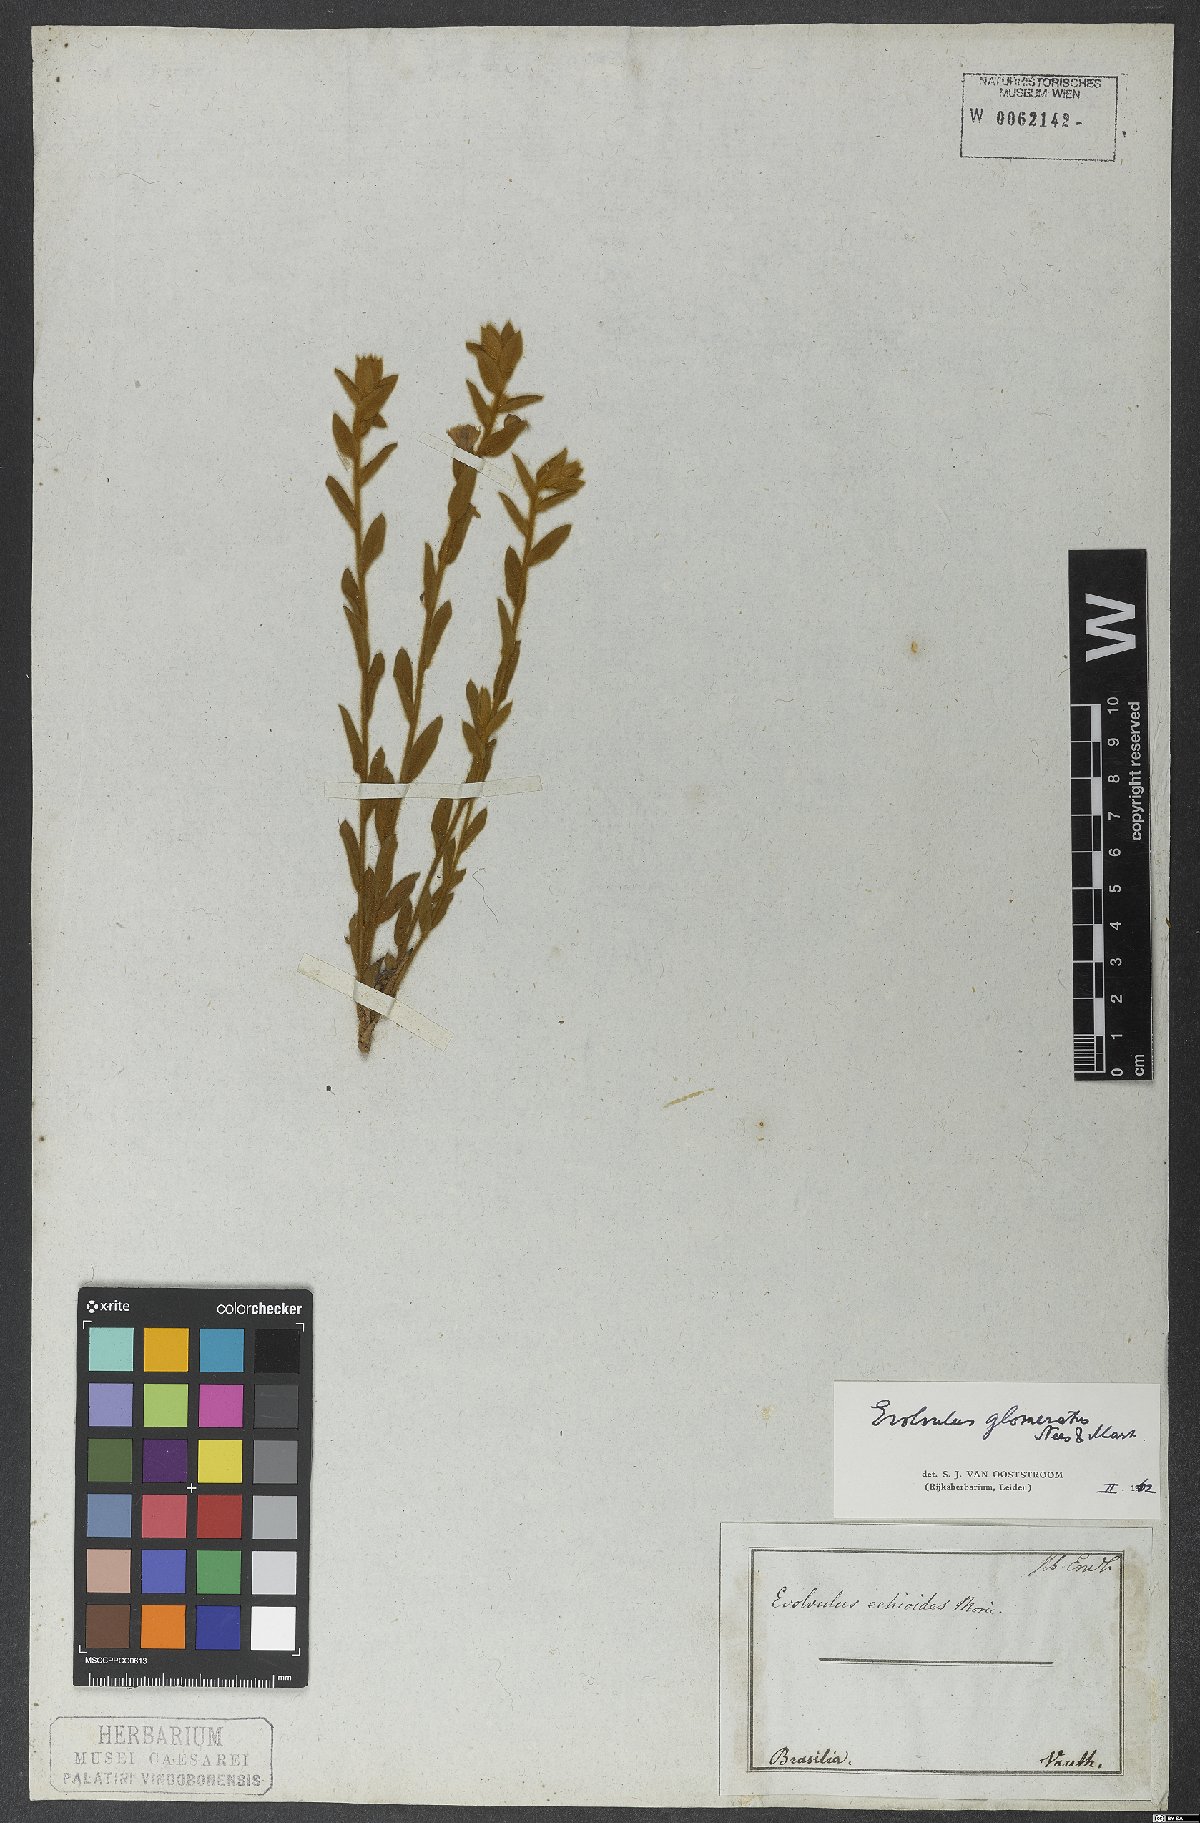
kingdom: Plantae
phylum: Tracheophyta
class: Magnoliopsida
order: Solanales
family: Convolvulaceae
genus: Evolvulus
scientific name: Evolvulus echioides
